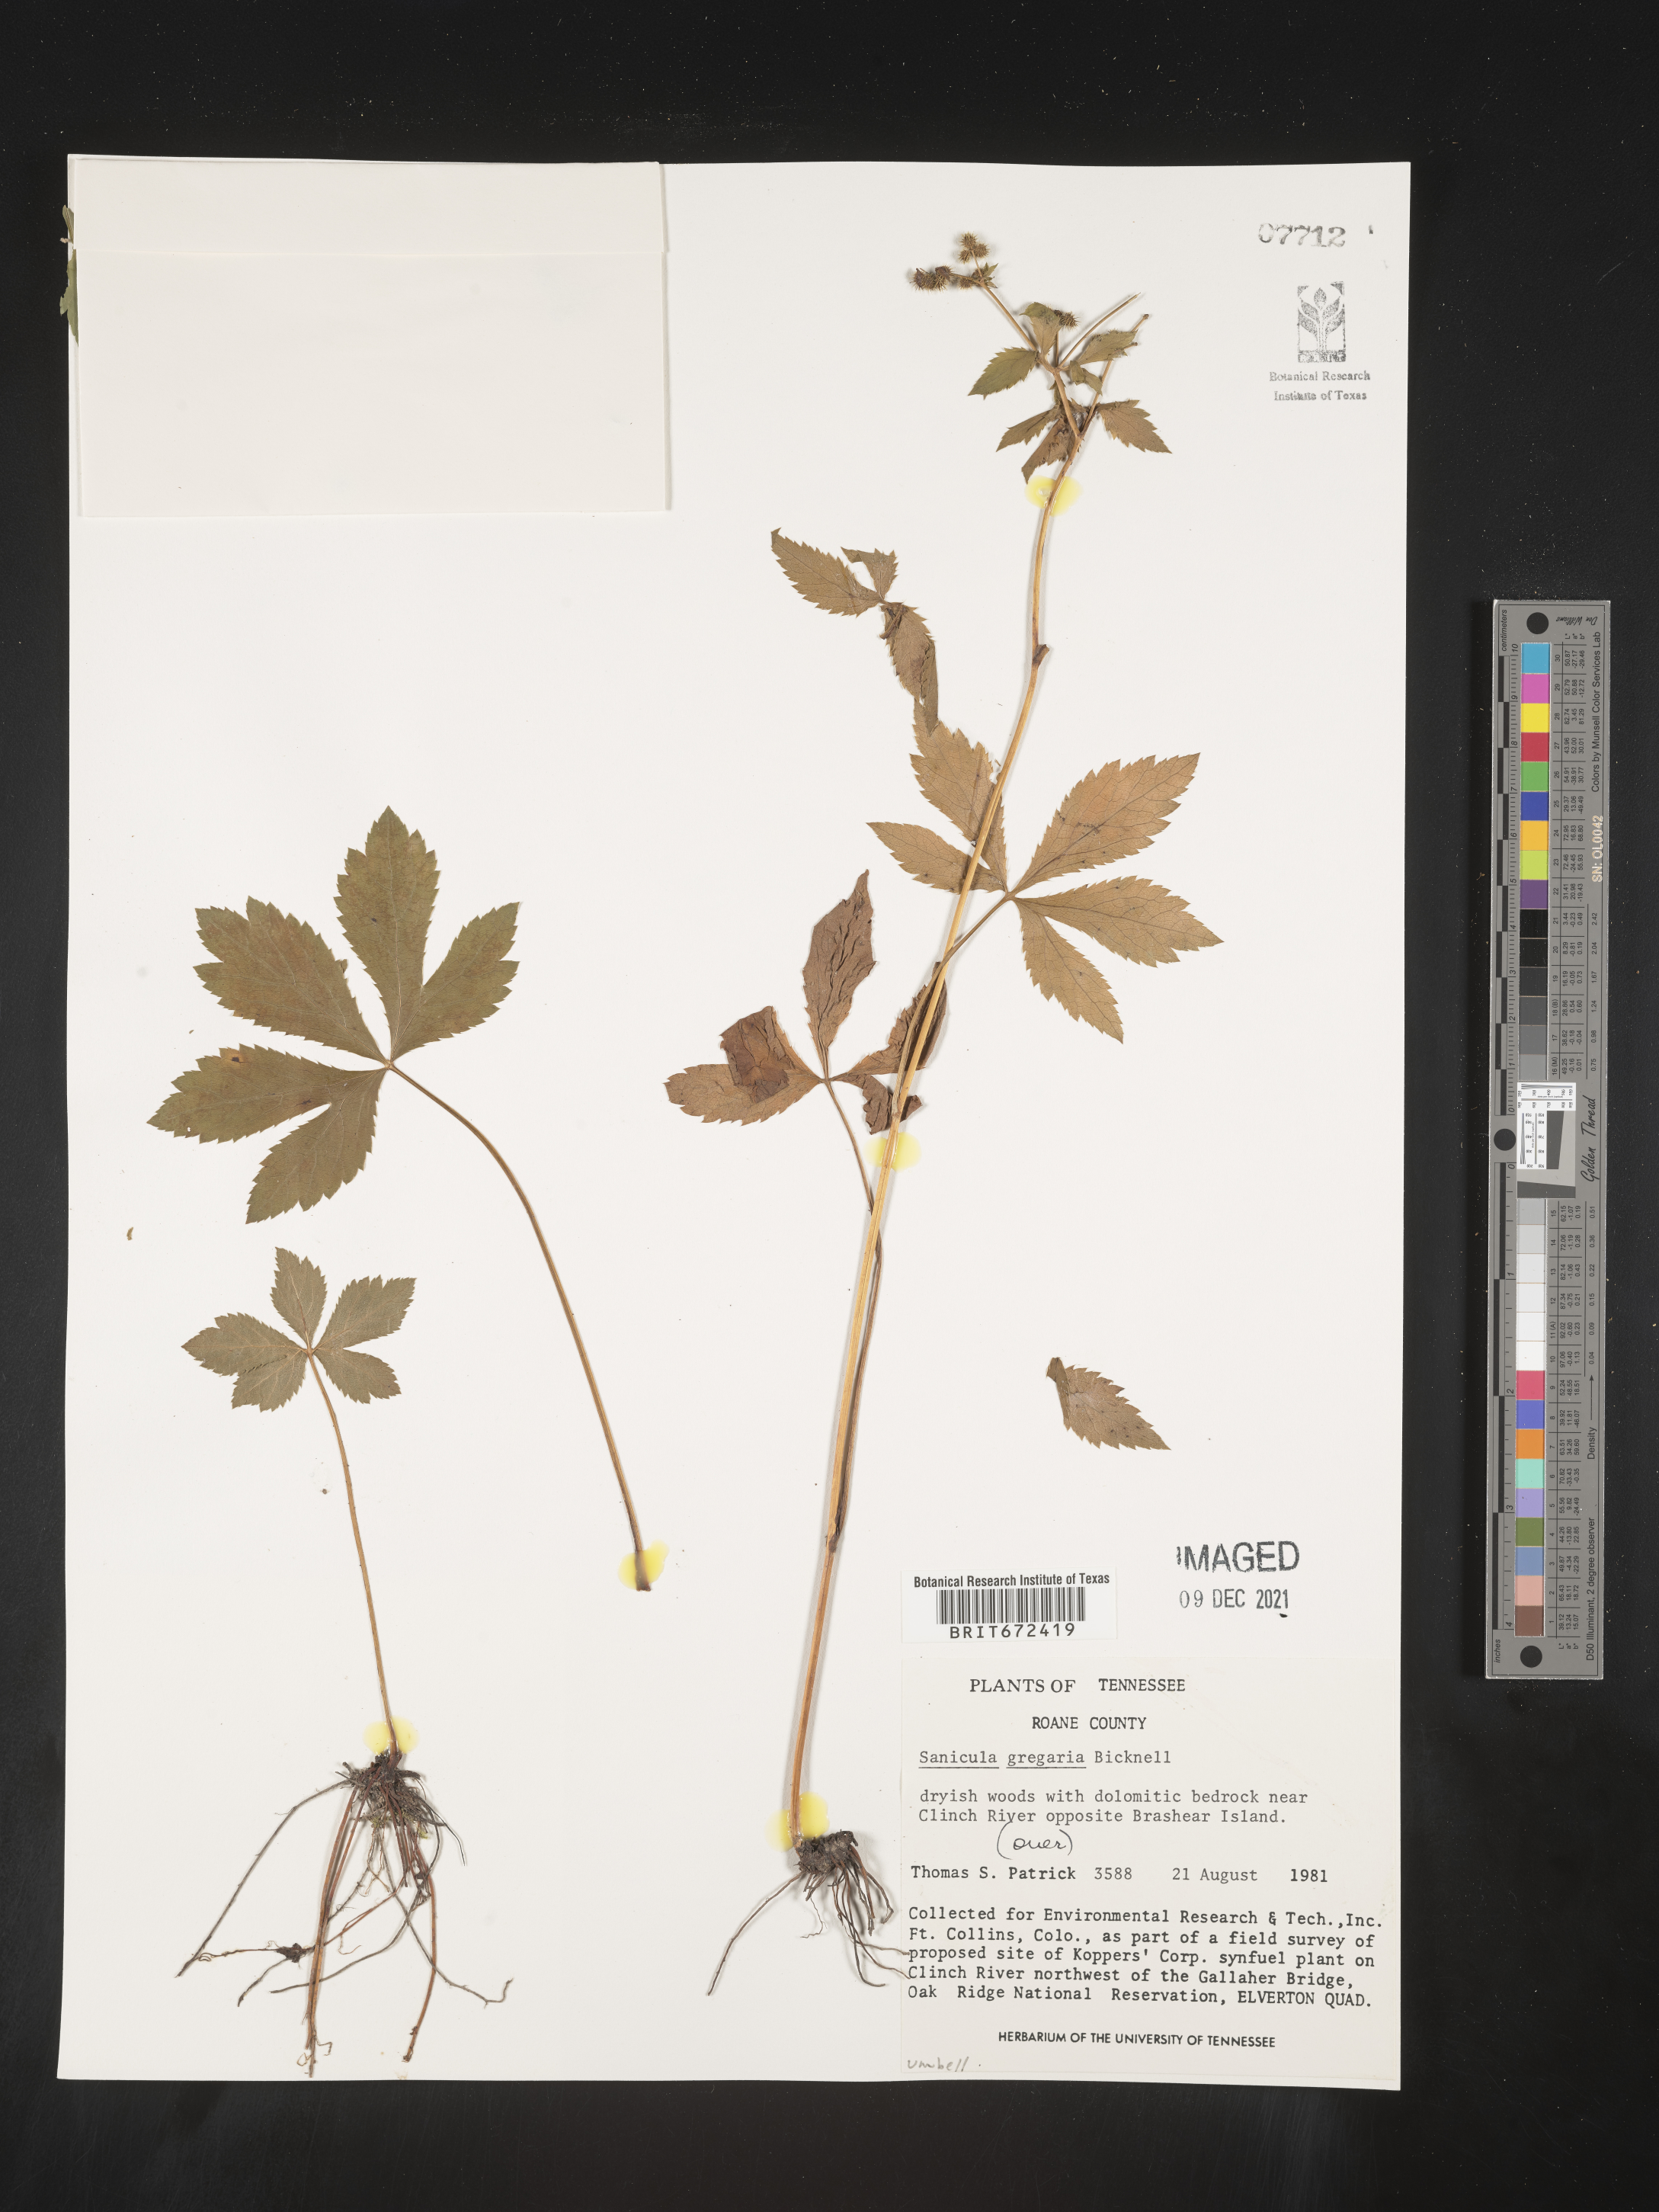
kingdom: Plantae
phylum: Tracheophyta
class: Magnoliopsida
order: Apiales
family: Apiaceae
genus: Sanicula
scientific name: Sanicula odorata
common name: Cluster sanicle
